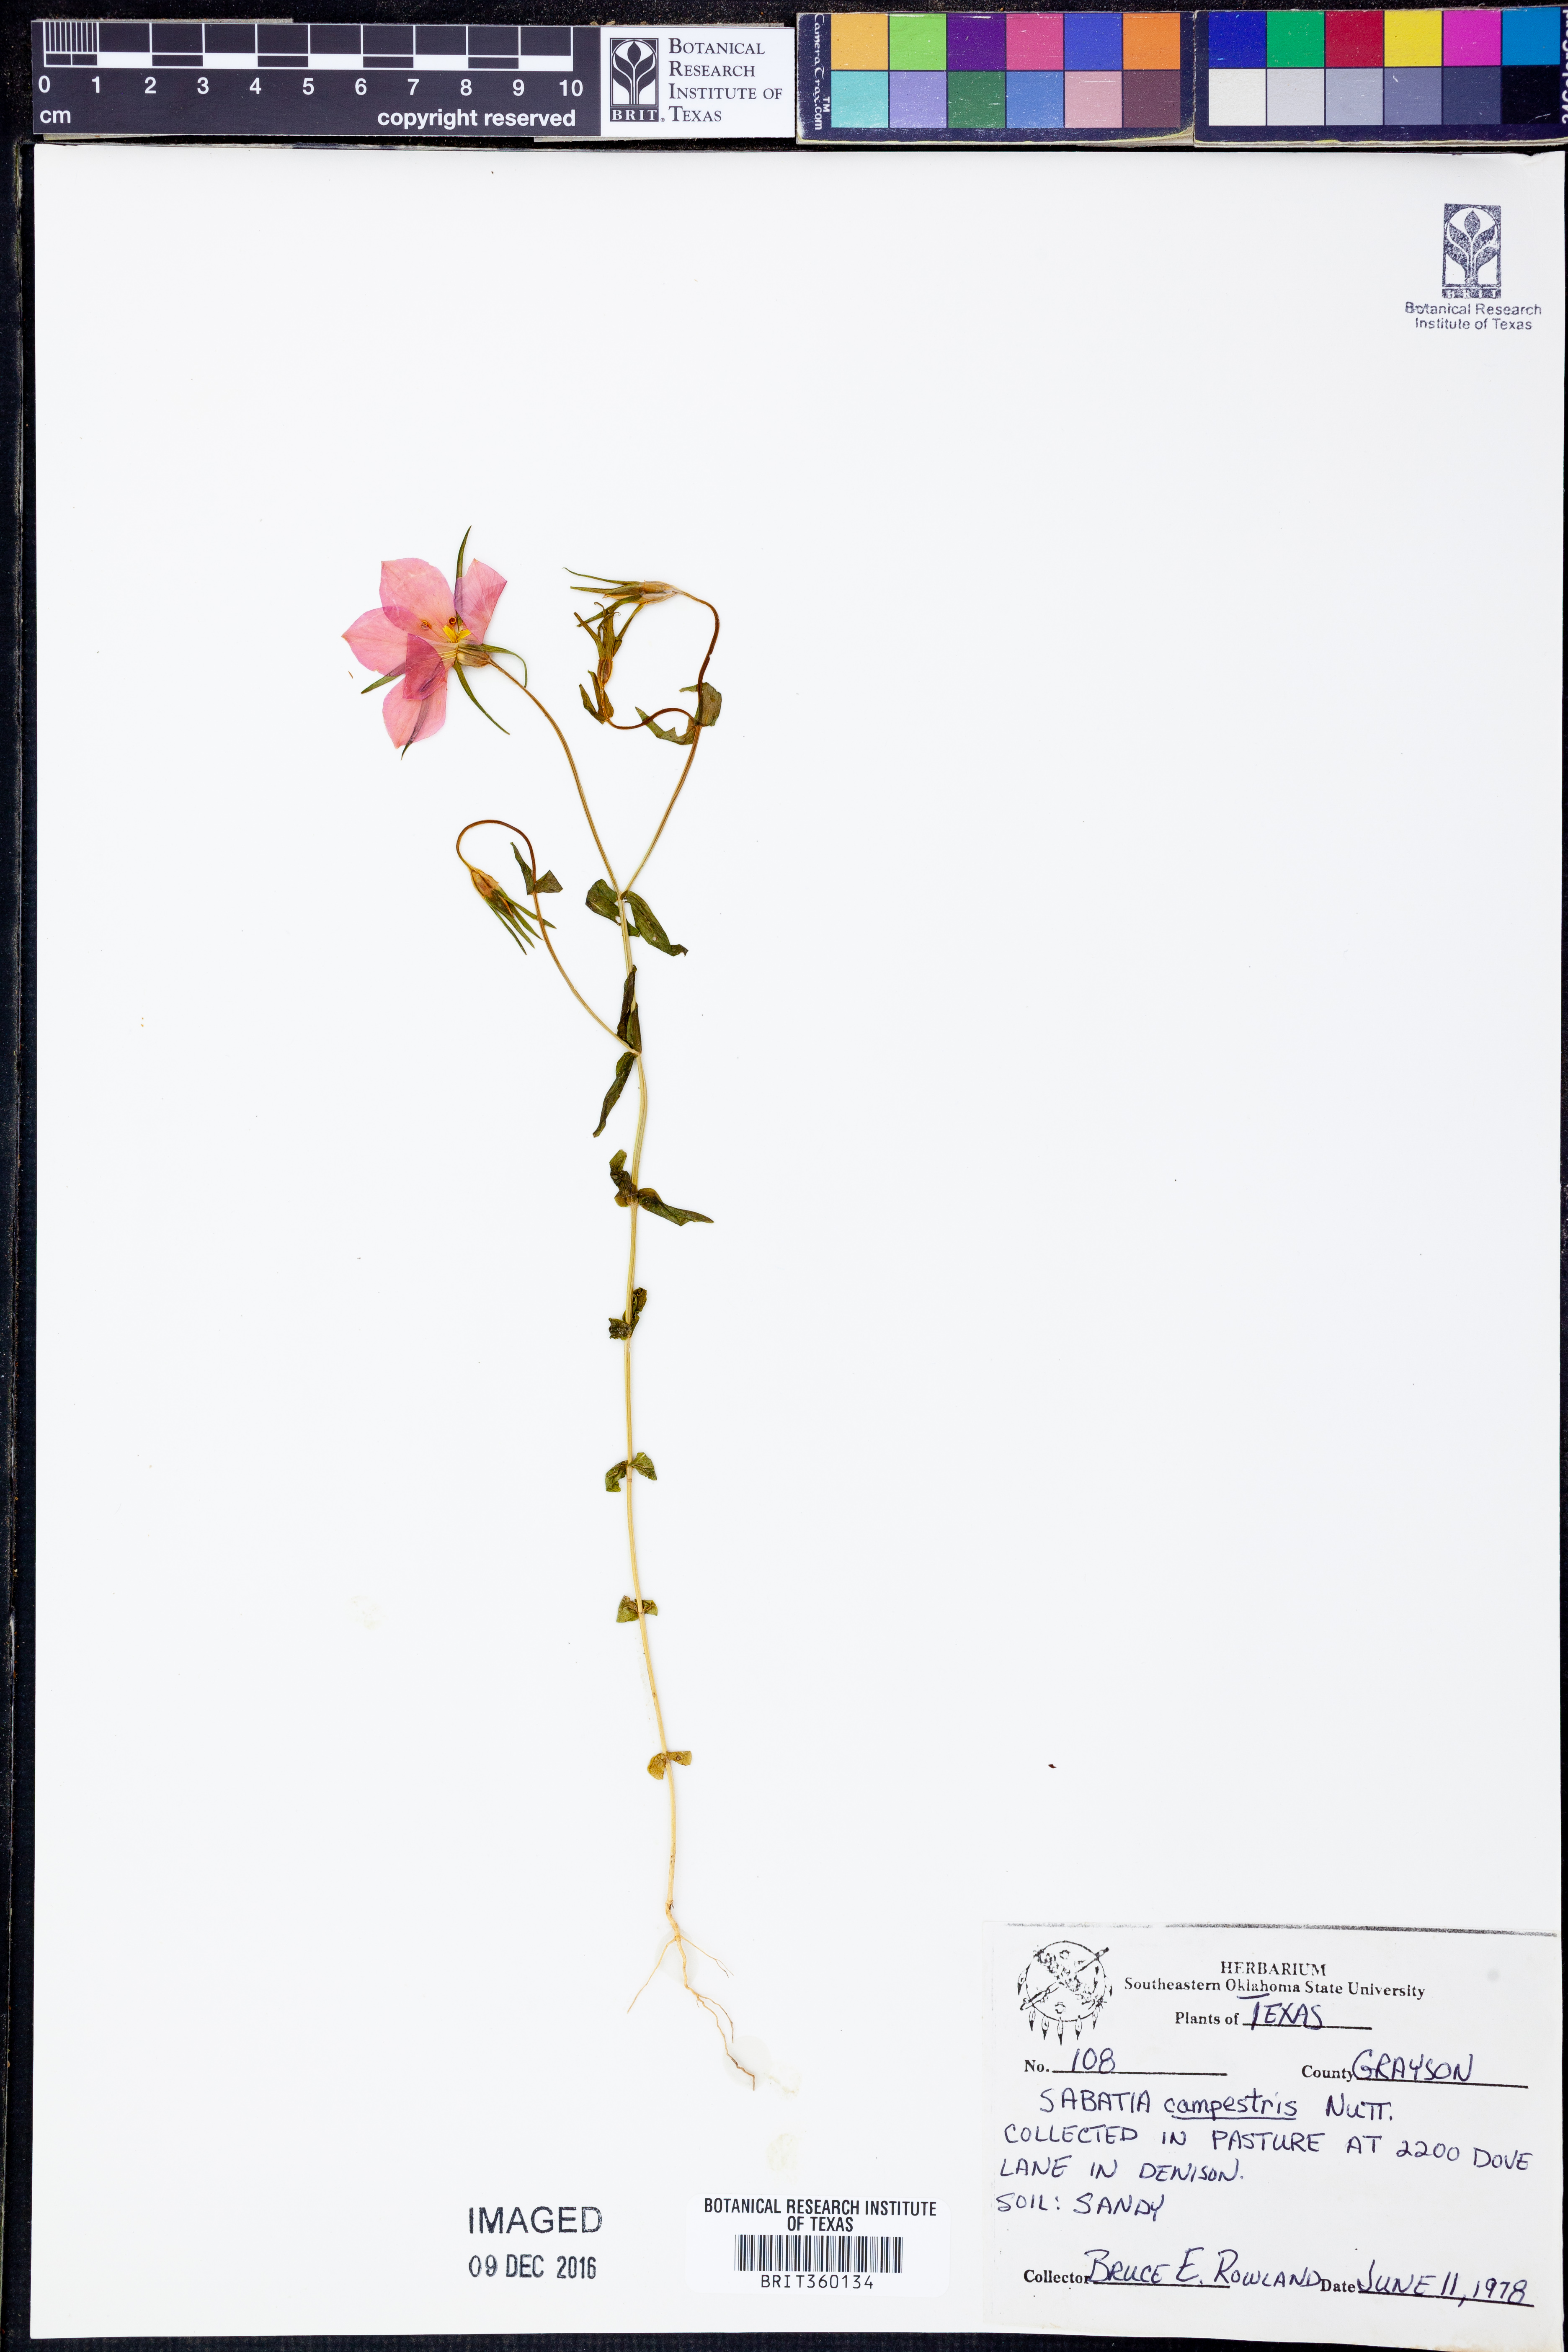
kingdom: Plantae
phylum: Tracheophyta
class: Magnoliopsida
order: Gentianales
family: Gentianaceae
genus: Sabatia
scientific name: Sabatia campestris
